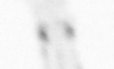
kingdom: Animalia
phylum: Arthropoda
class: Maxillopoda
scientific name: Maxillopoda
